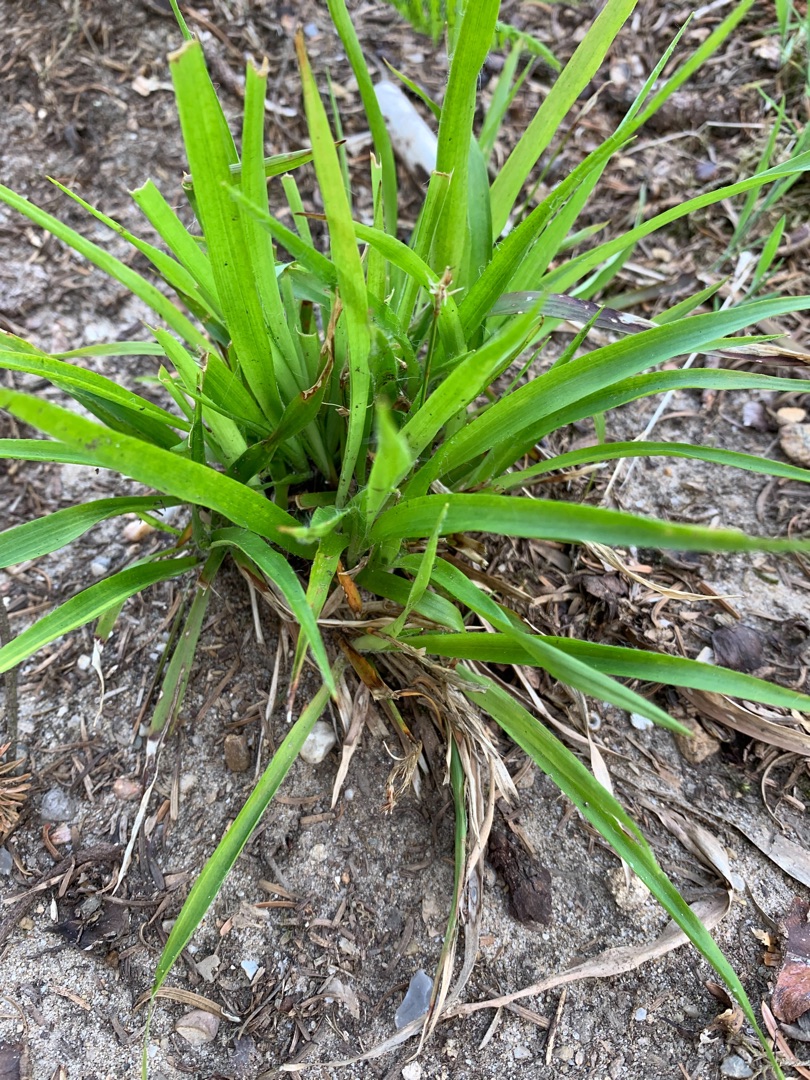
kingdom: Plantae
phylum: Tracheophyta
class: Liliopsida
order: Poales
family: Juncaceae
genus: Luzula
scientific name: Luzula pilosa
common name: Håret frytle
